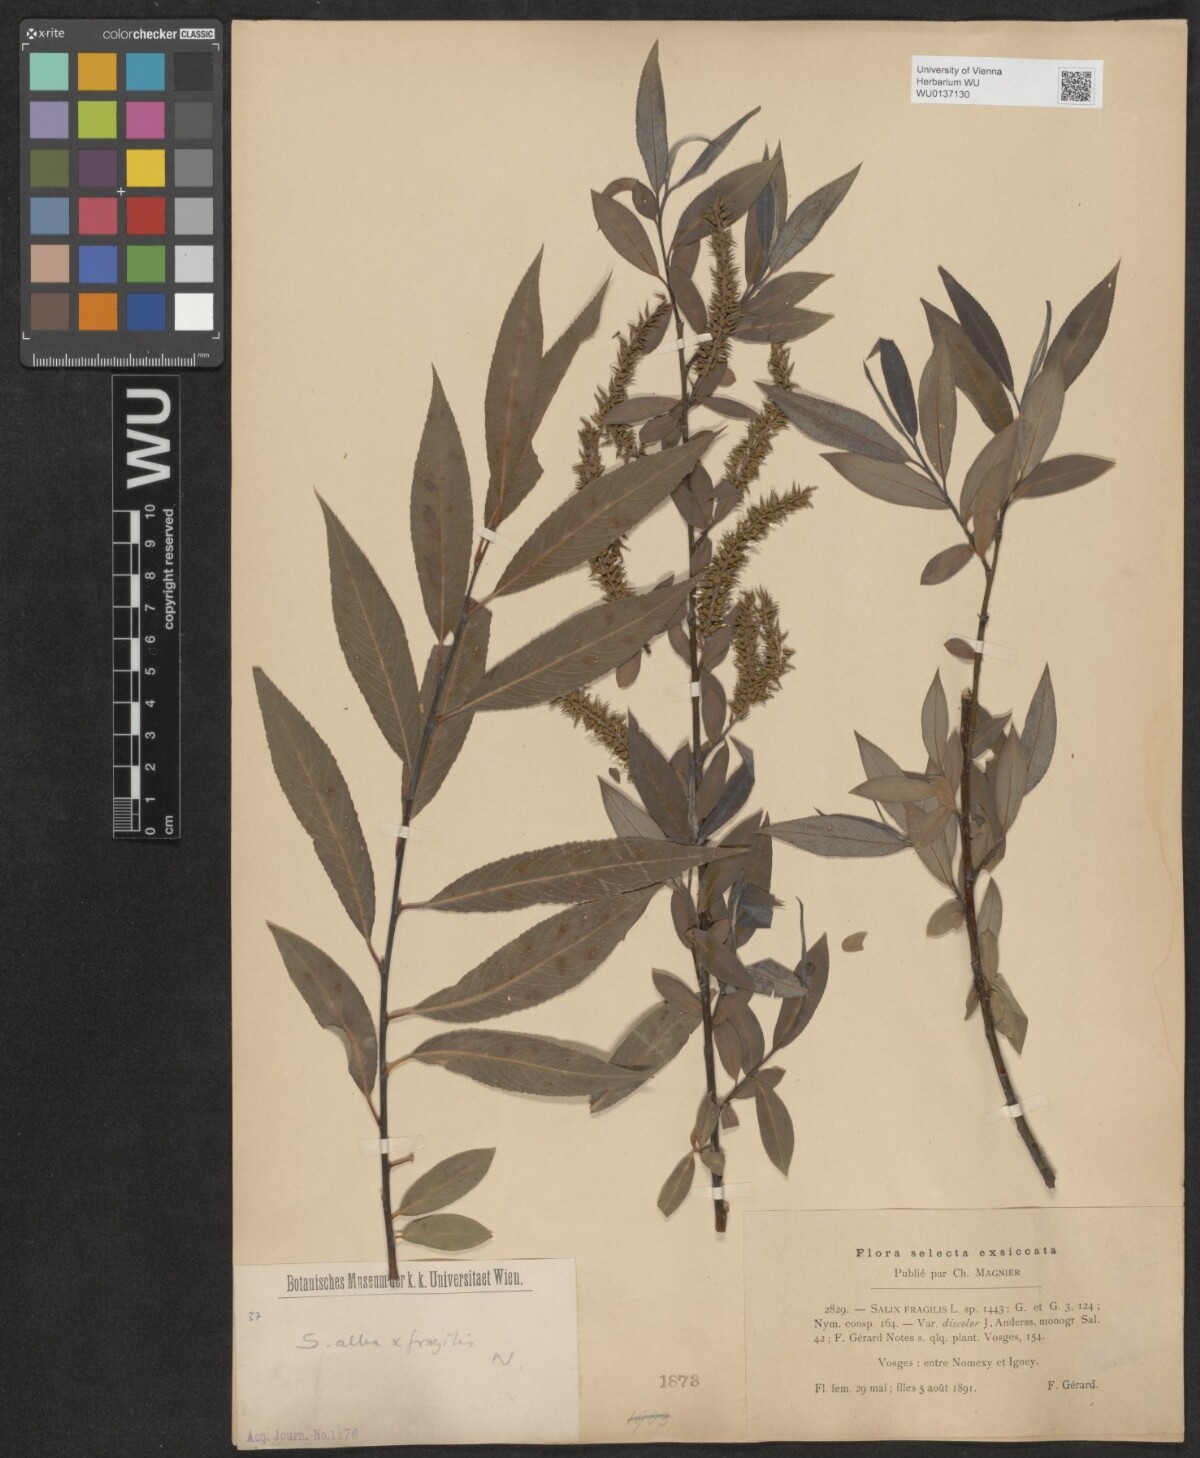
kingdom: Plantae
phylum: Tracheophyta
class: Magnoliopsida
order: Malpighiales
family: Salicaceae
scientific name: Salicaceae
